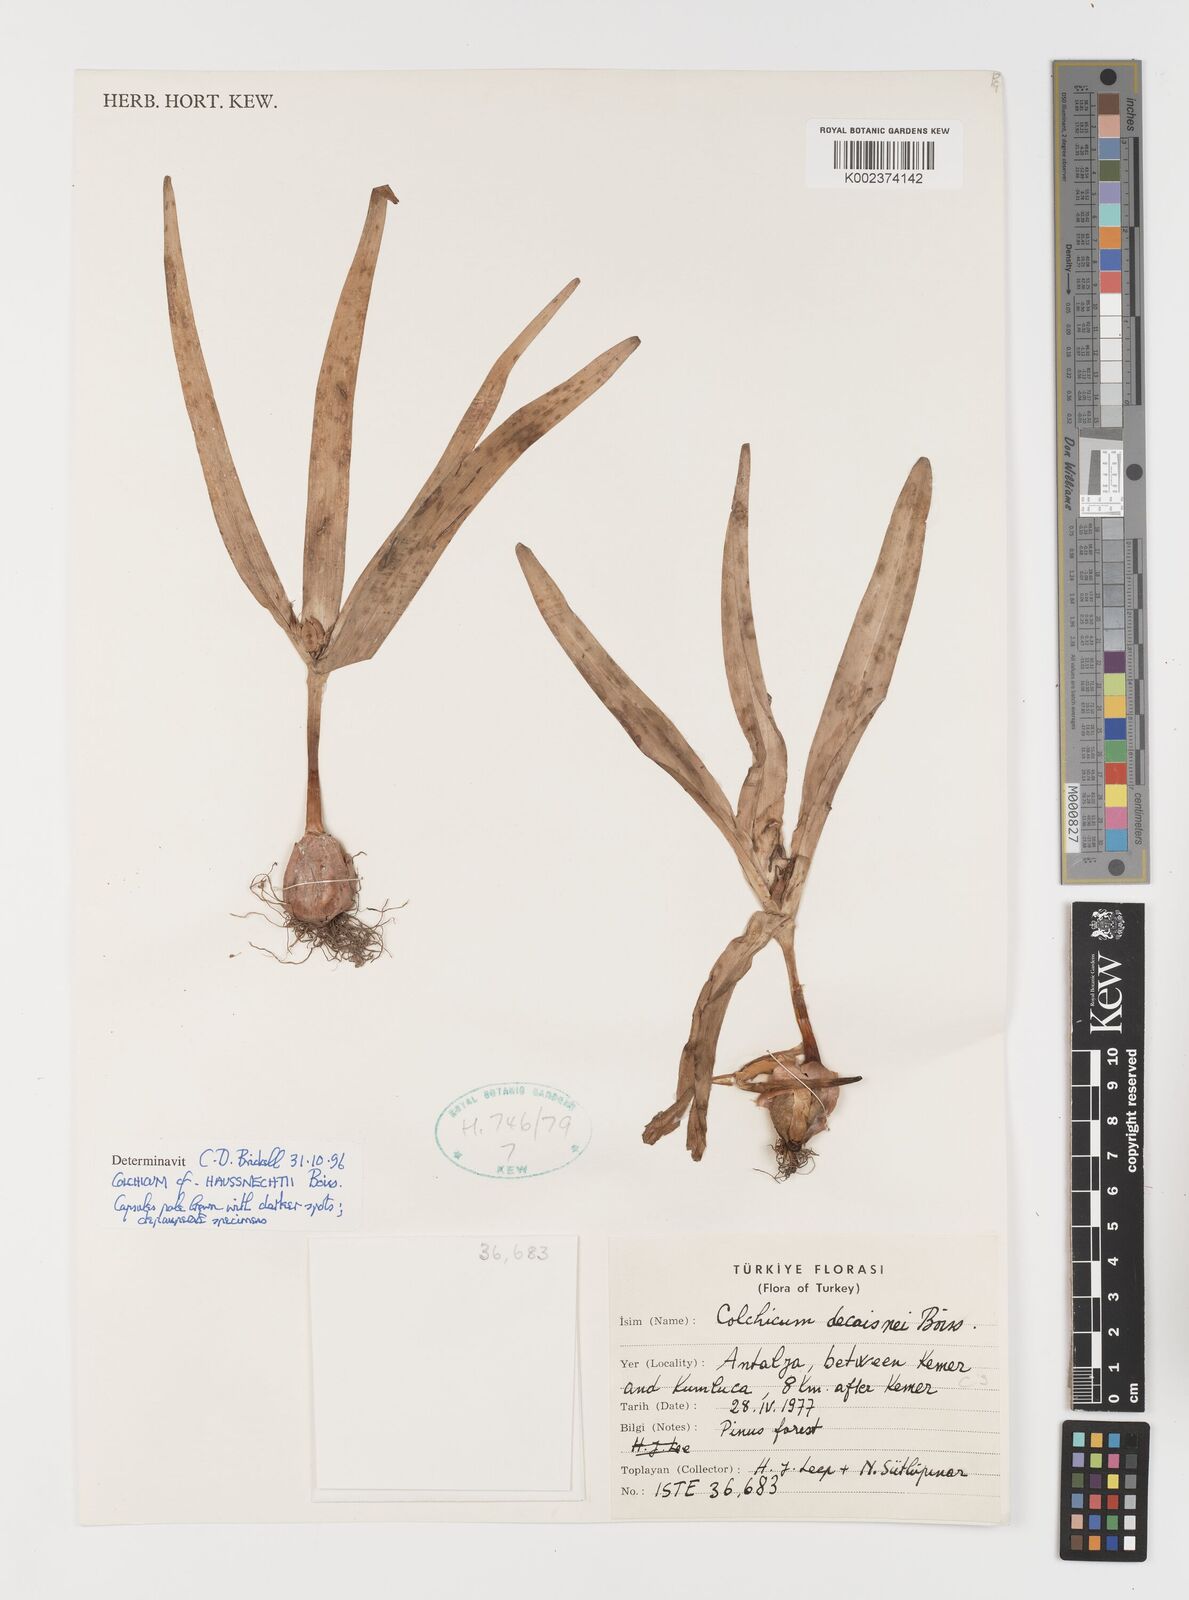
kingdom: Plantae
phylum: Tracheophyta
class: Liliopsida
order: Liliales
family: Colchicaceae
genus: Colchicum
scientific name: Colchicum persicum
